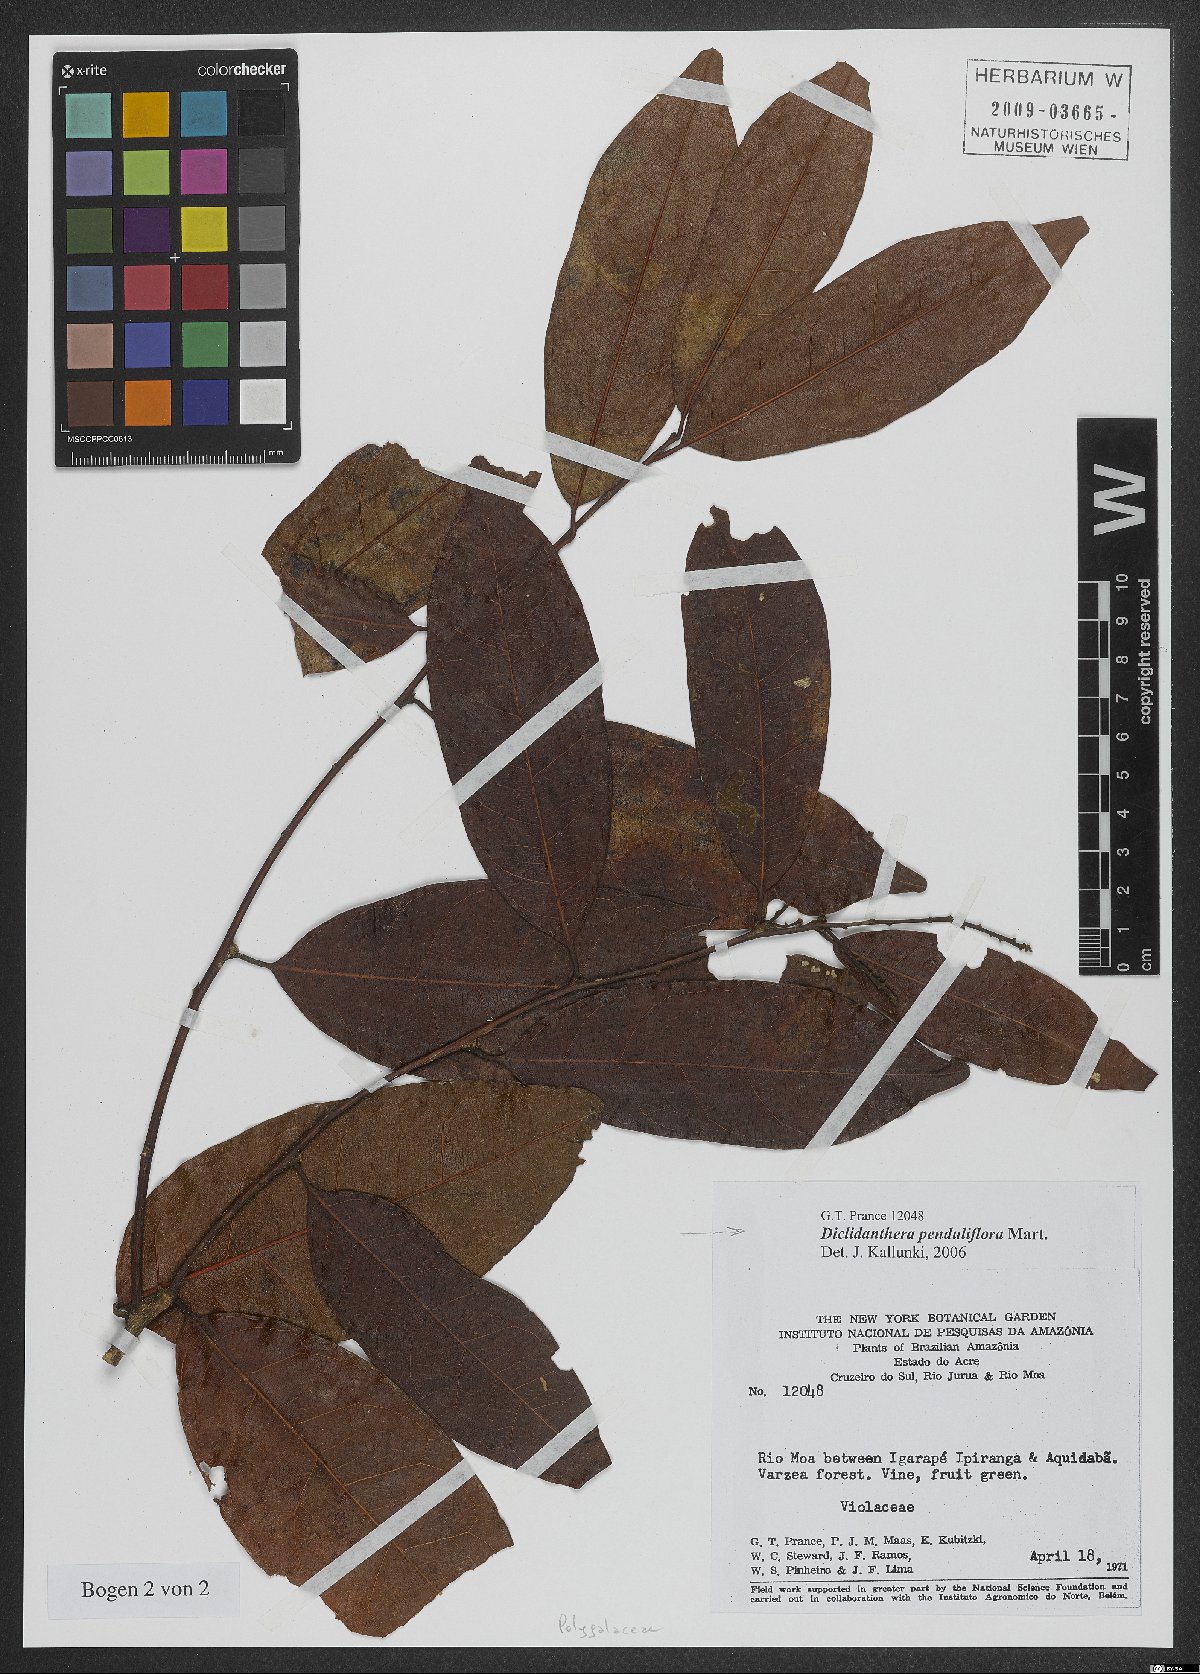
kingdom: Plantae
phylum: Tracheophyta
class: Magnoliopsida
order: Fabales
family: Polygalaceae
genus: Diclidanthera
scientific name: Diclidanthera penduliflora
